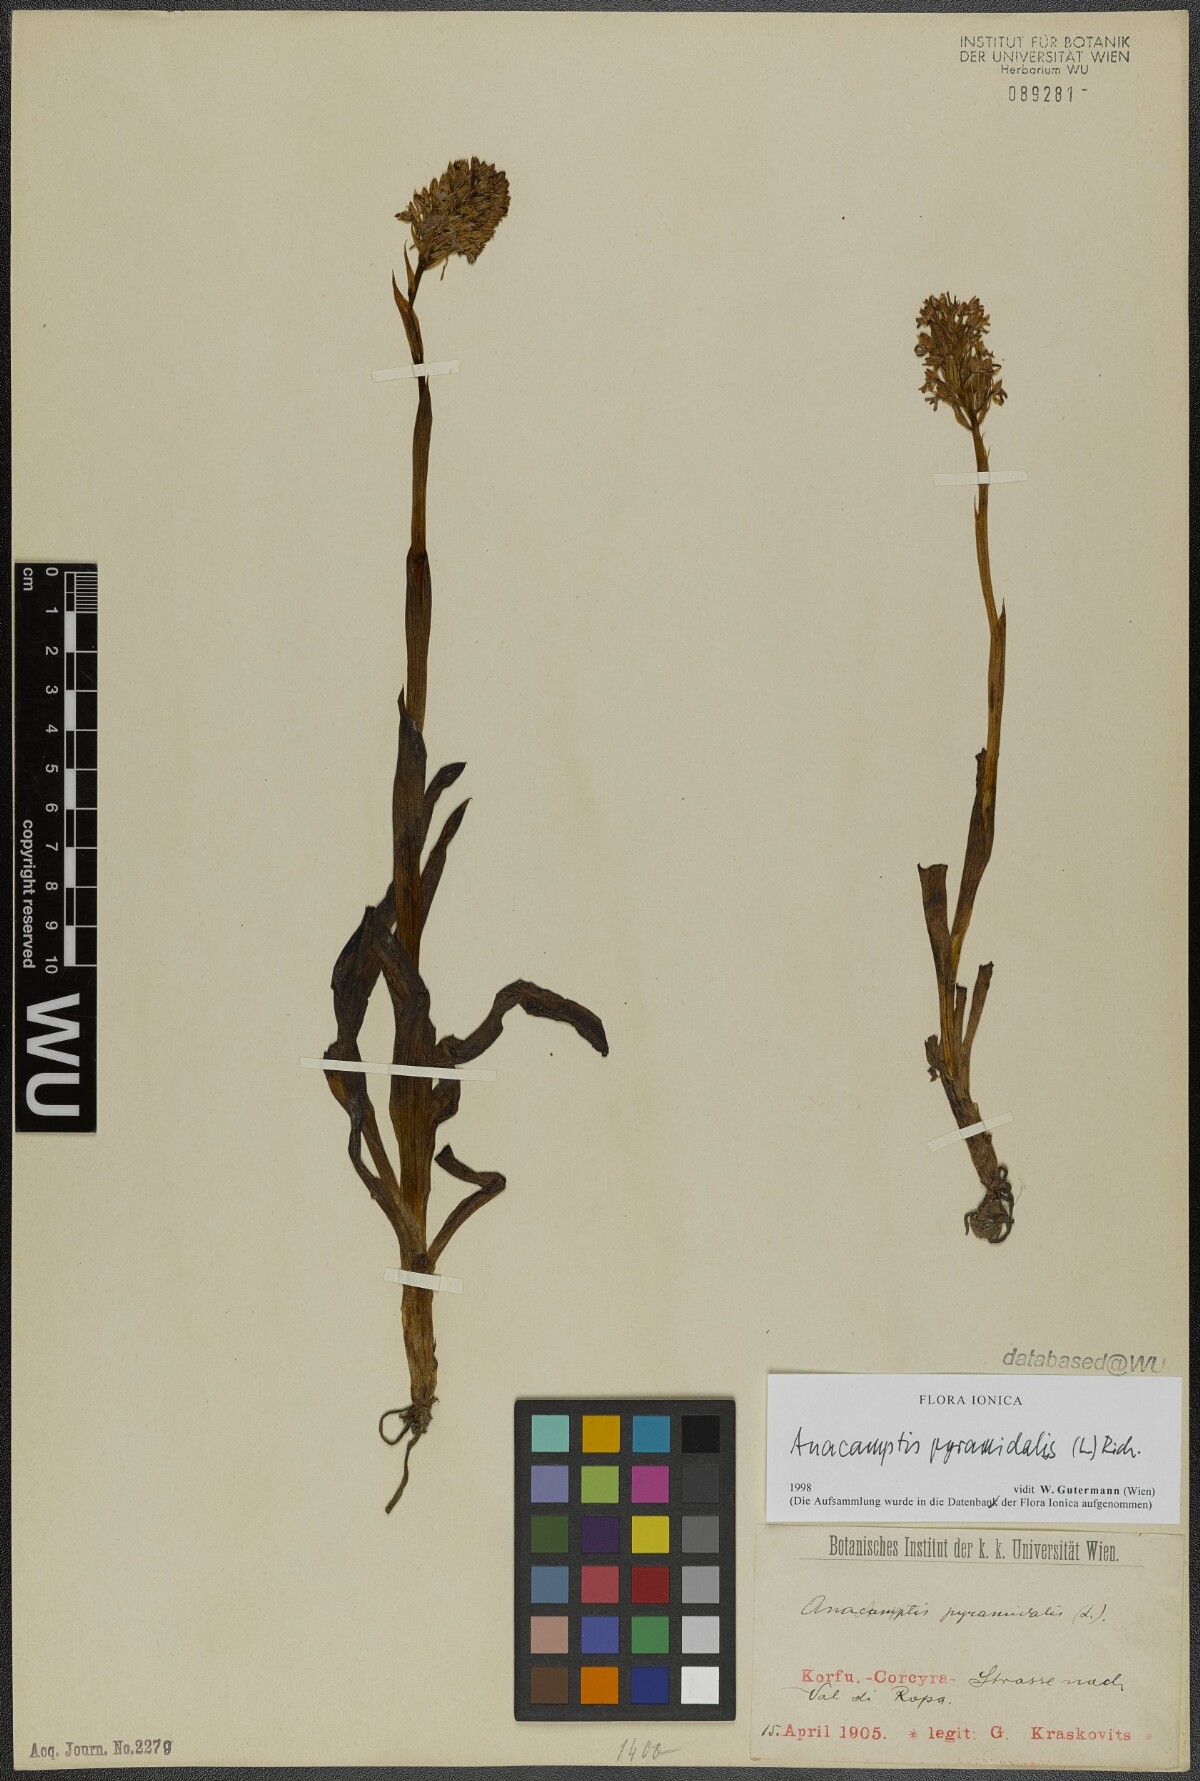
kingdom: Plantae
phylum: Tracheophyta
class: Liliopsida
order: Asparagales
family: Orchidaceae
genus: Anacamptis
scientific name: Anacamptis pyramidalis
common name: Pyramidal orchid
